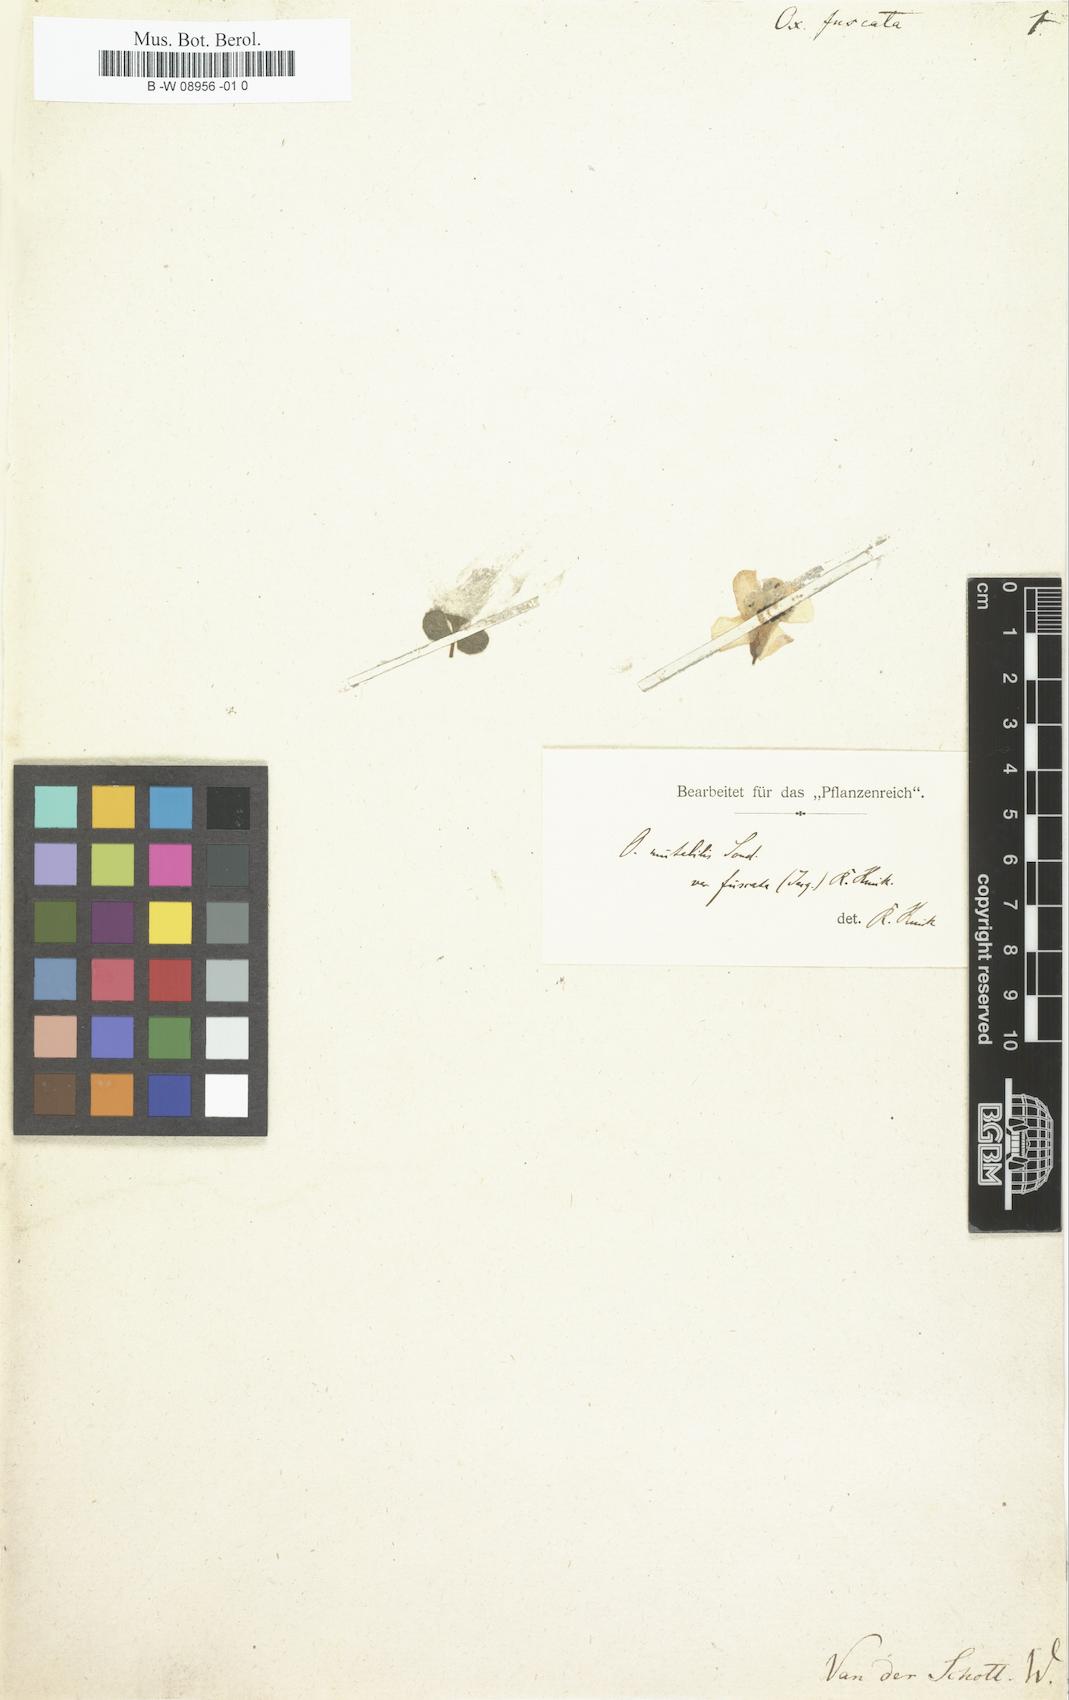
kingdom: Plantae
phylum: Tracheophyta
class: Magnoliopsida
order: Oxalidales
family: Oxalidaceae
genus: Oxalis
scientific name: Oxalis luteola
